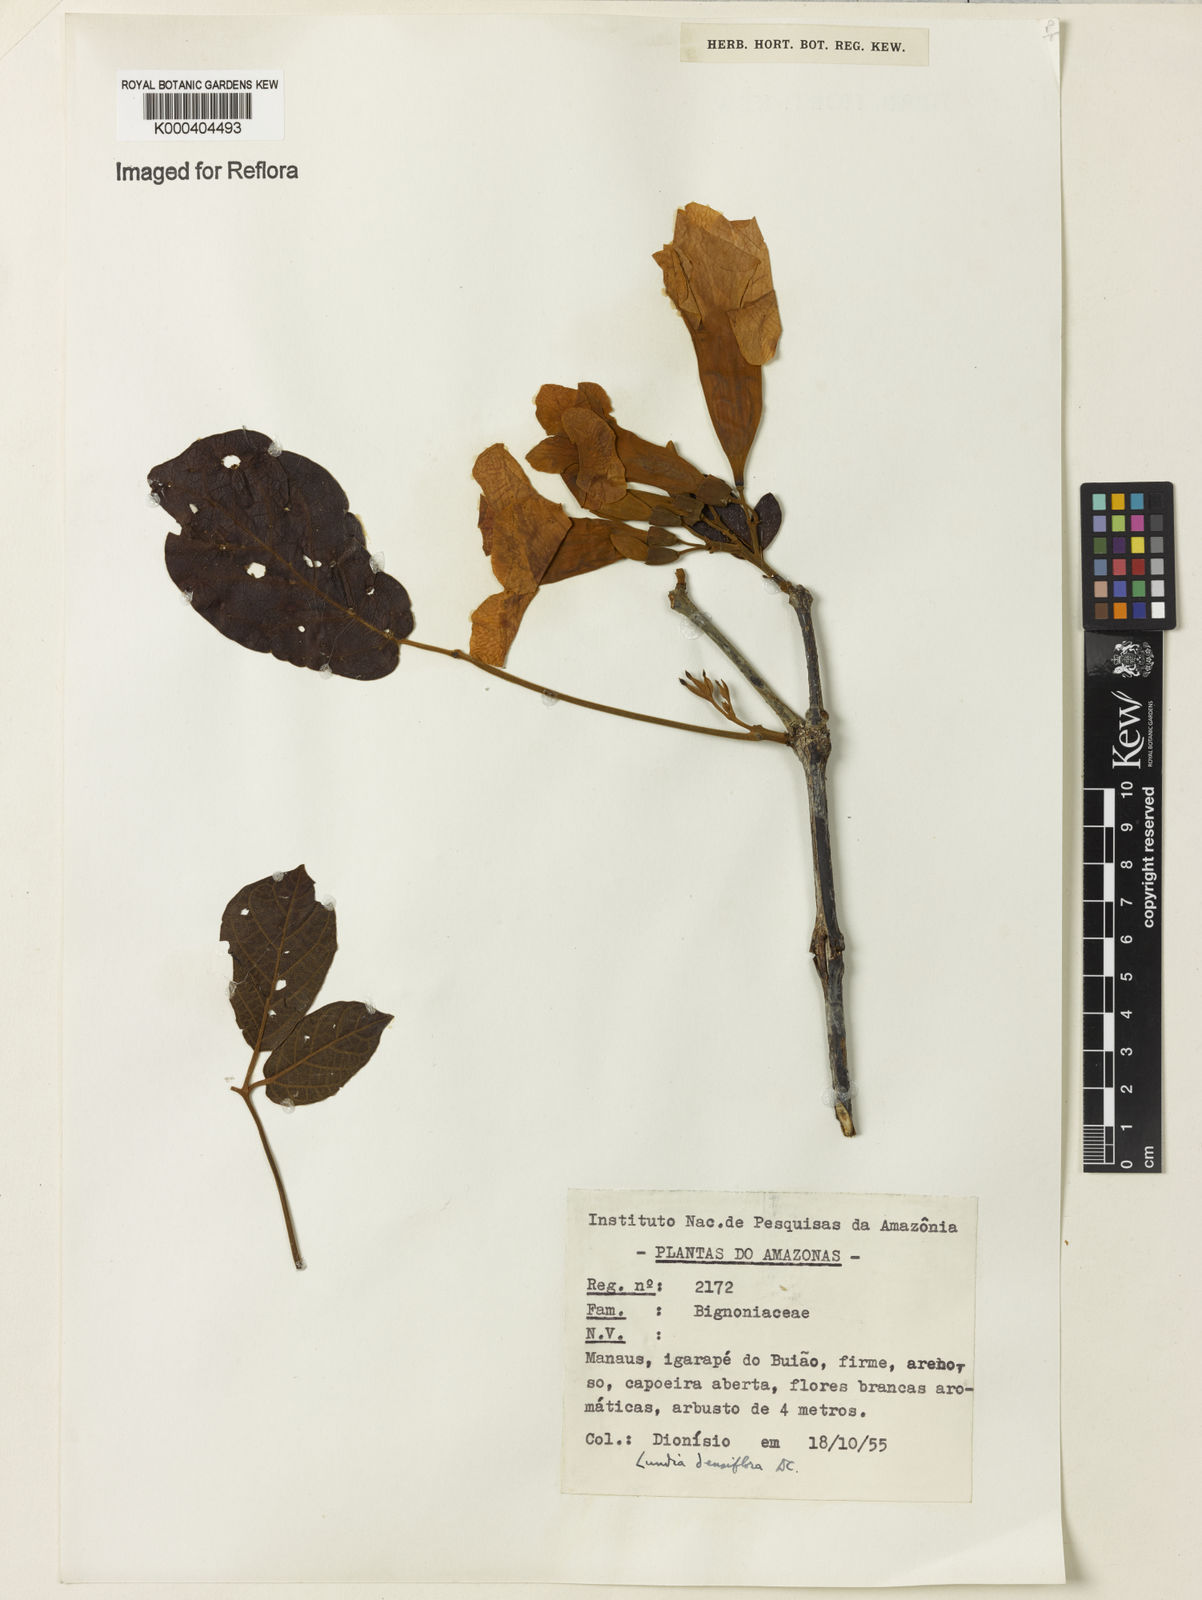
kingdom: Plantae
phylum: Tracheophyta
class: Magnoliopsida
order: Lamiales
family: Bignoniaceae
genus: Lundia
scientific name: Lundia densiflora
